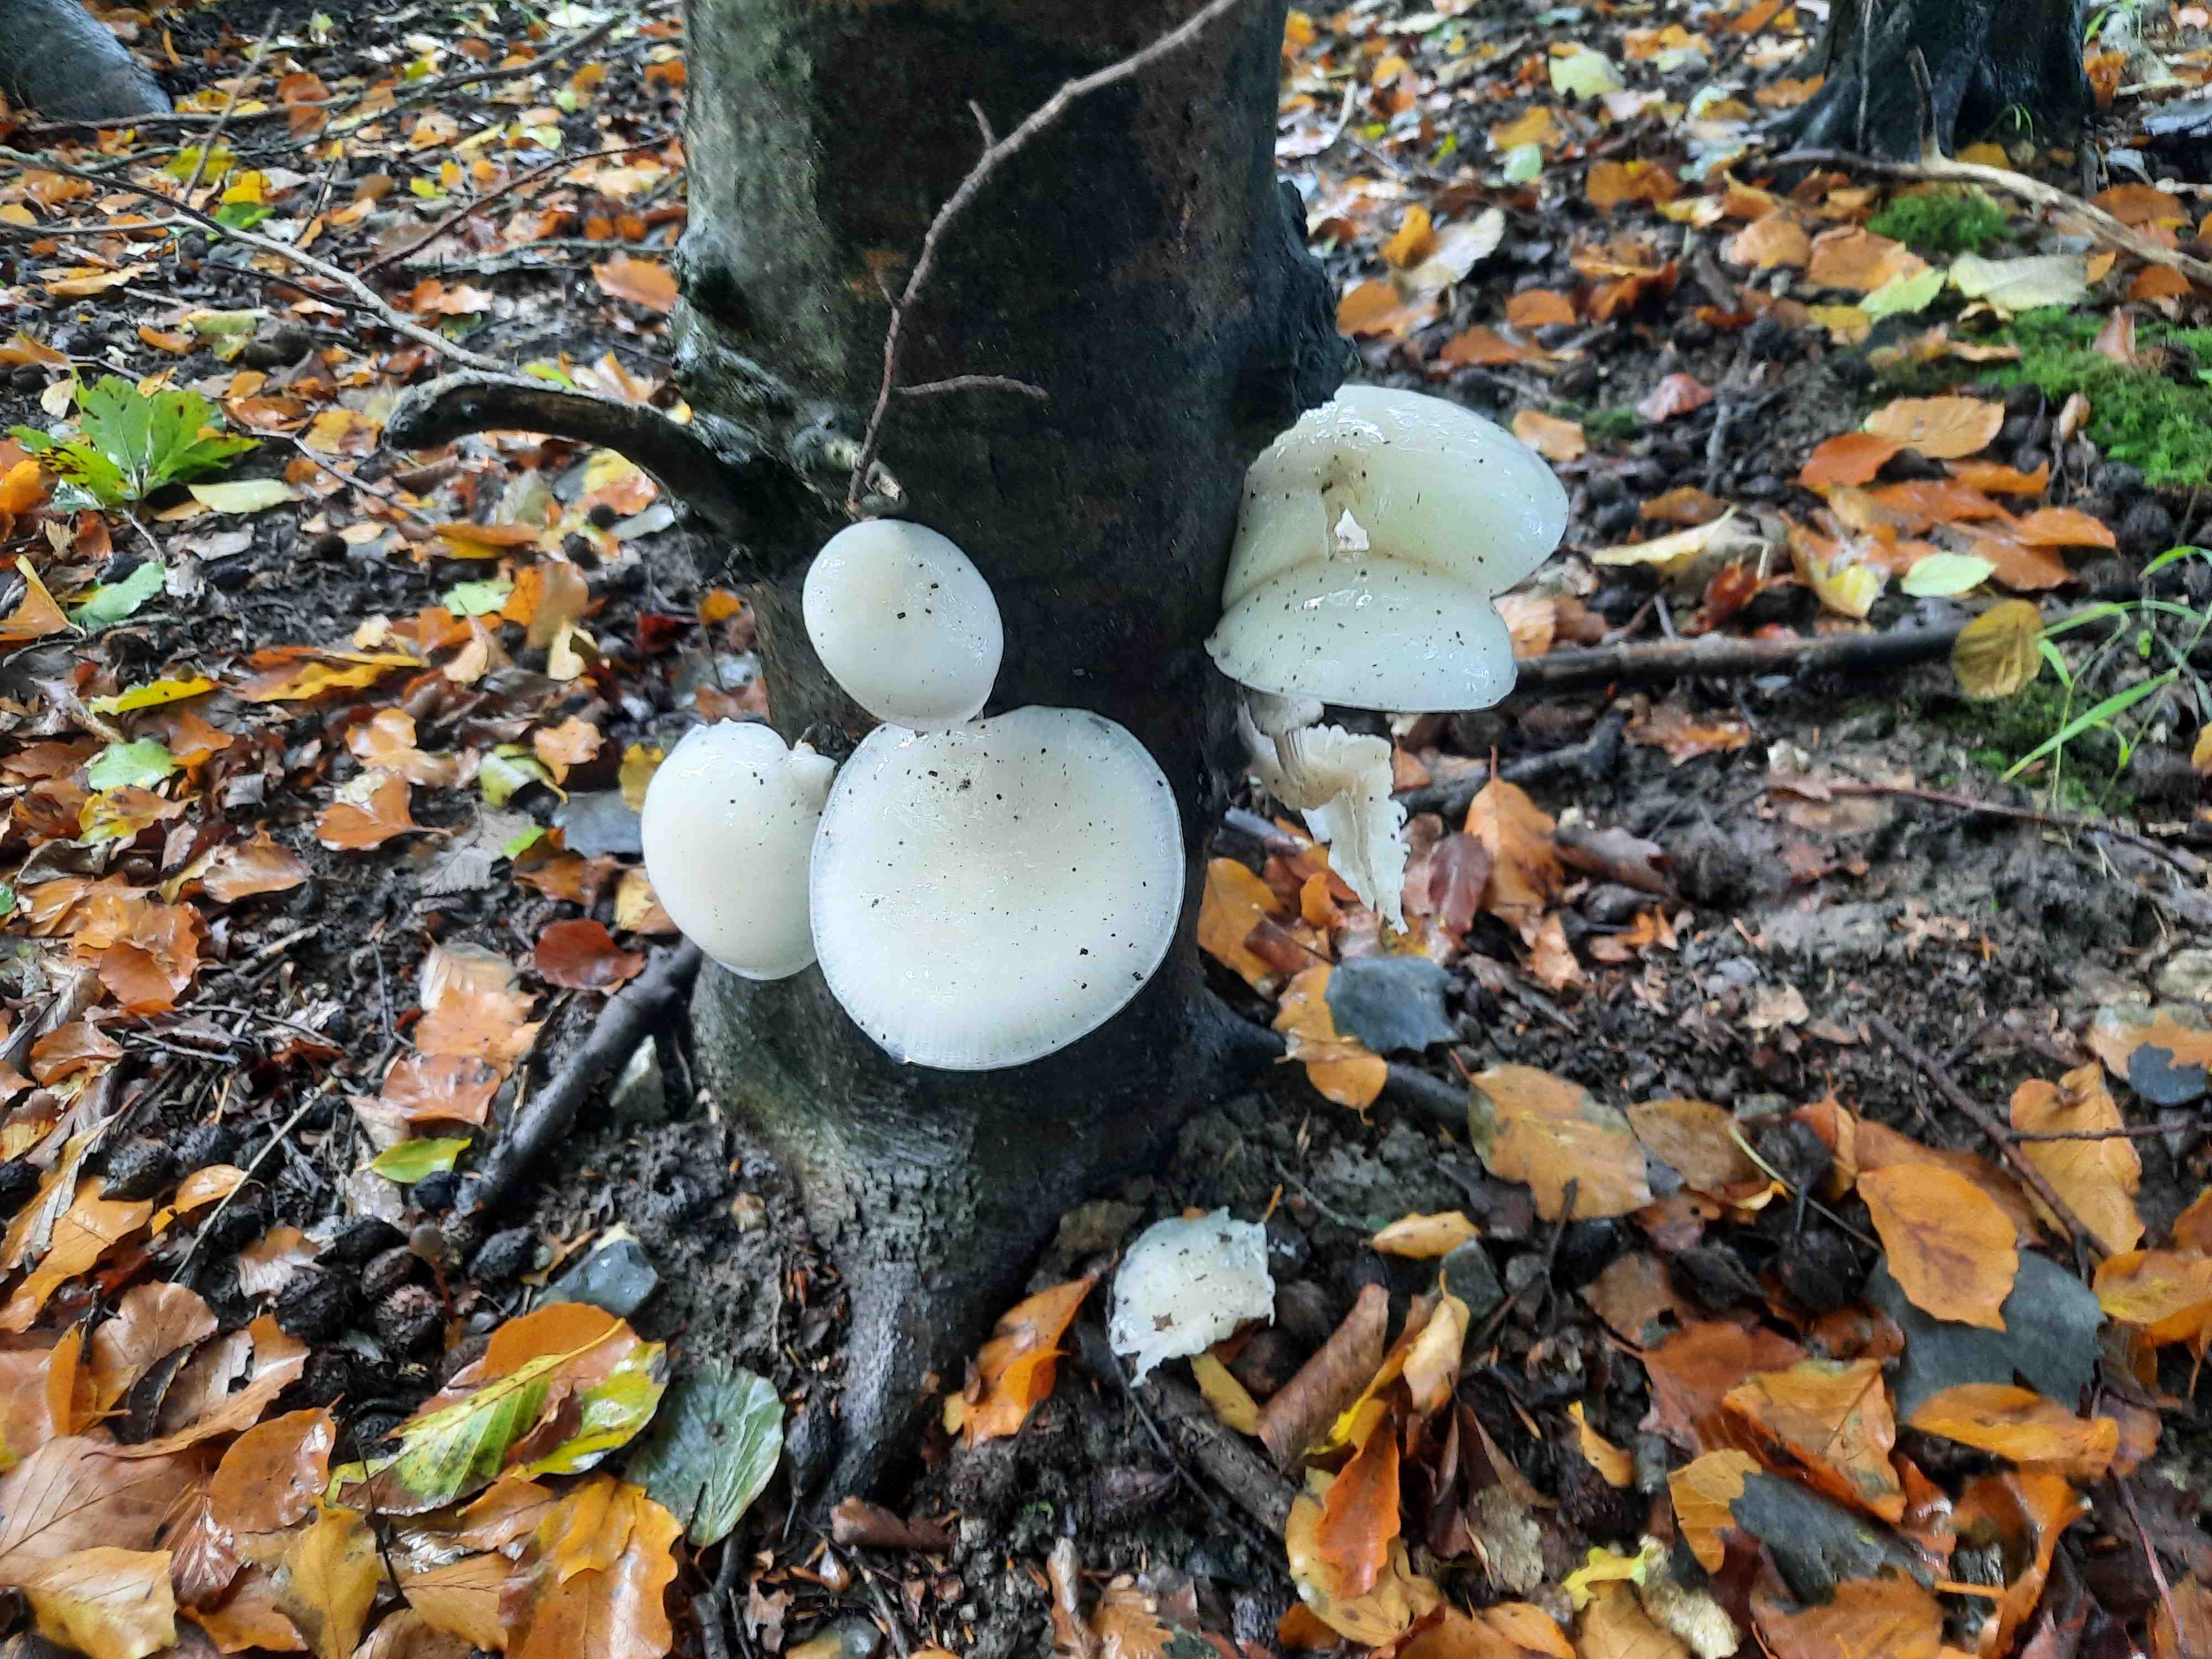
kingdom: Fungi
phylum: Basidiomycota
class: Agaricomycetes
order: Agaricales
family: Physalacriaceae
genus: Mucidula
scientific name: Mucidula mucida
